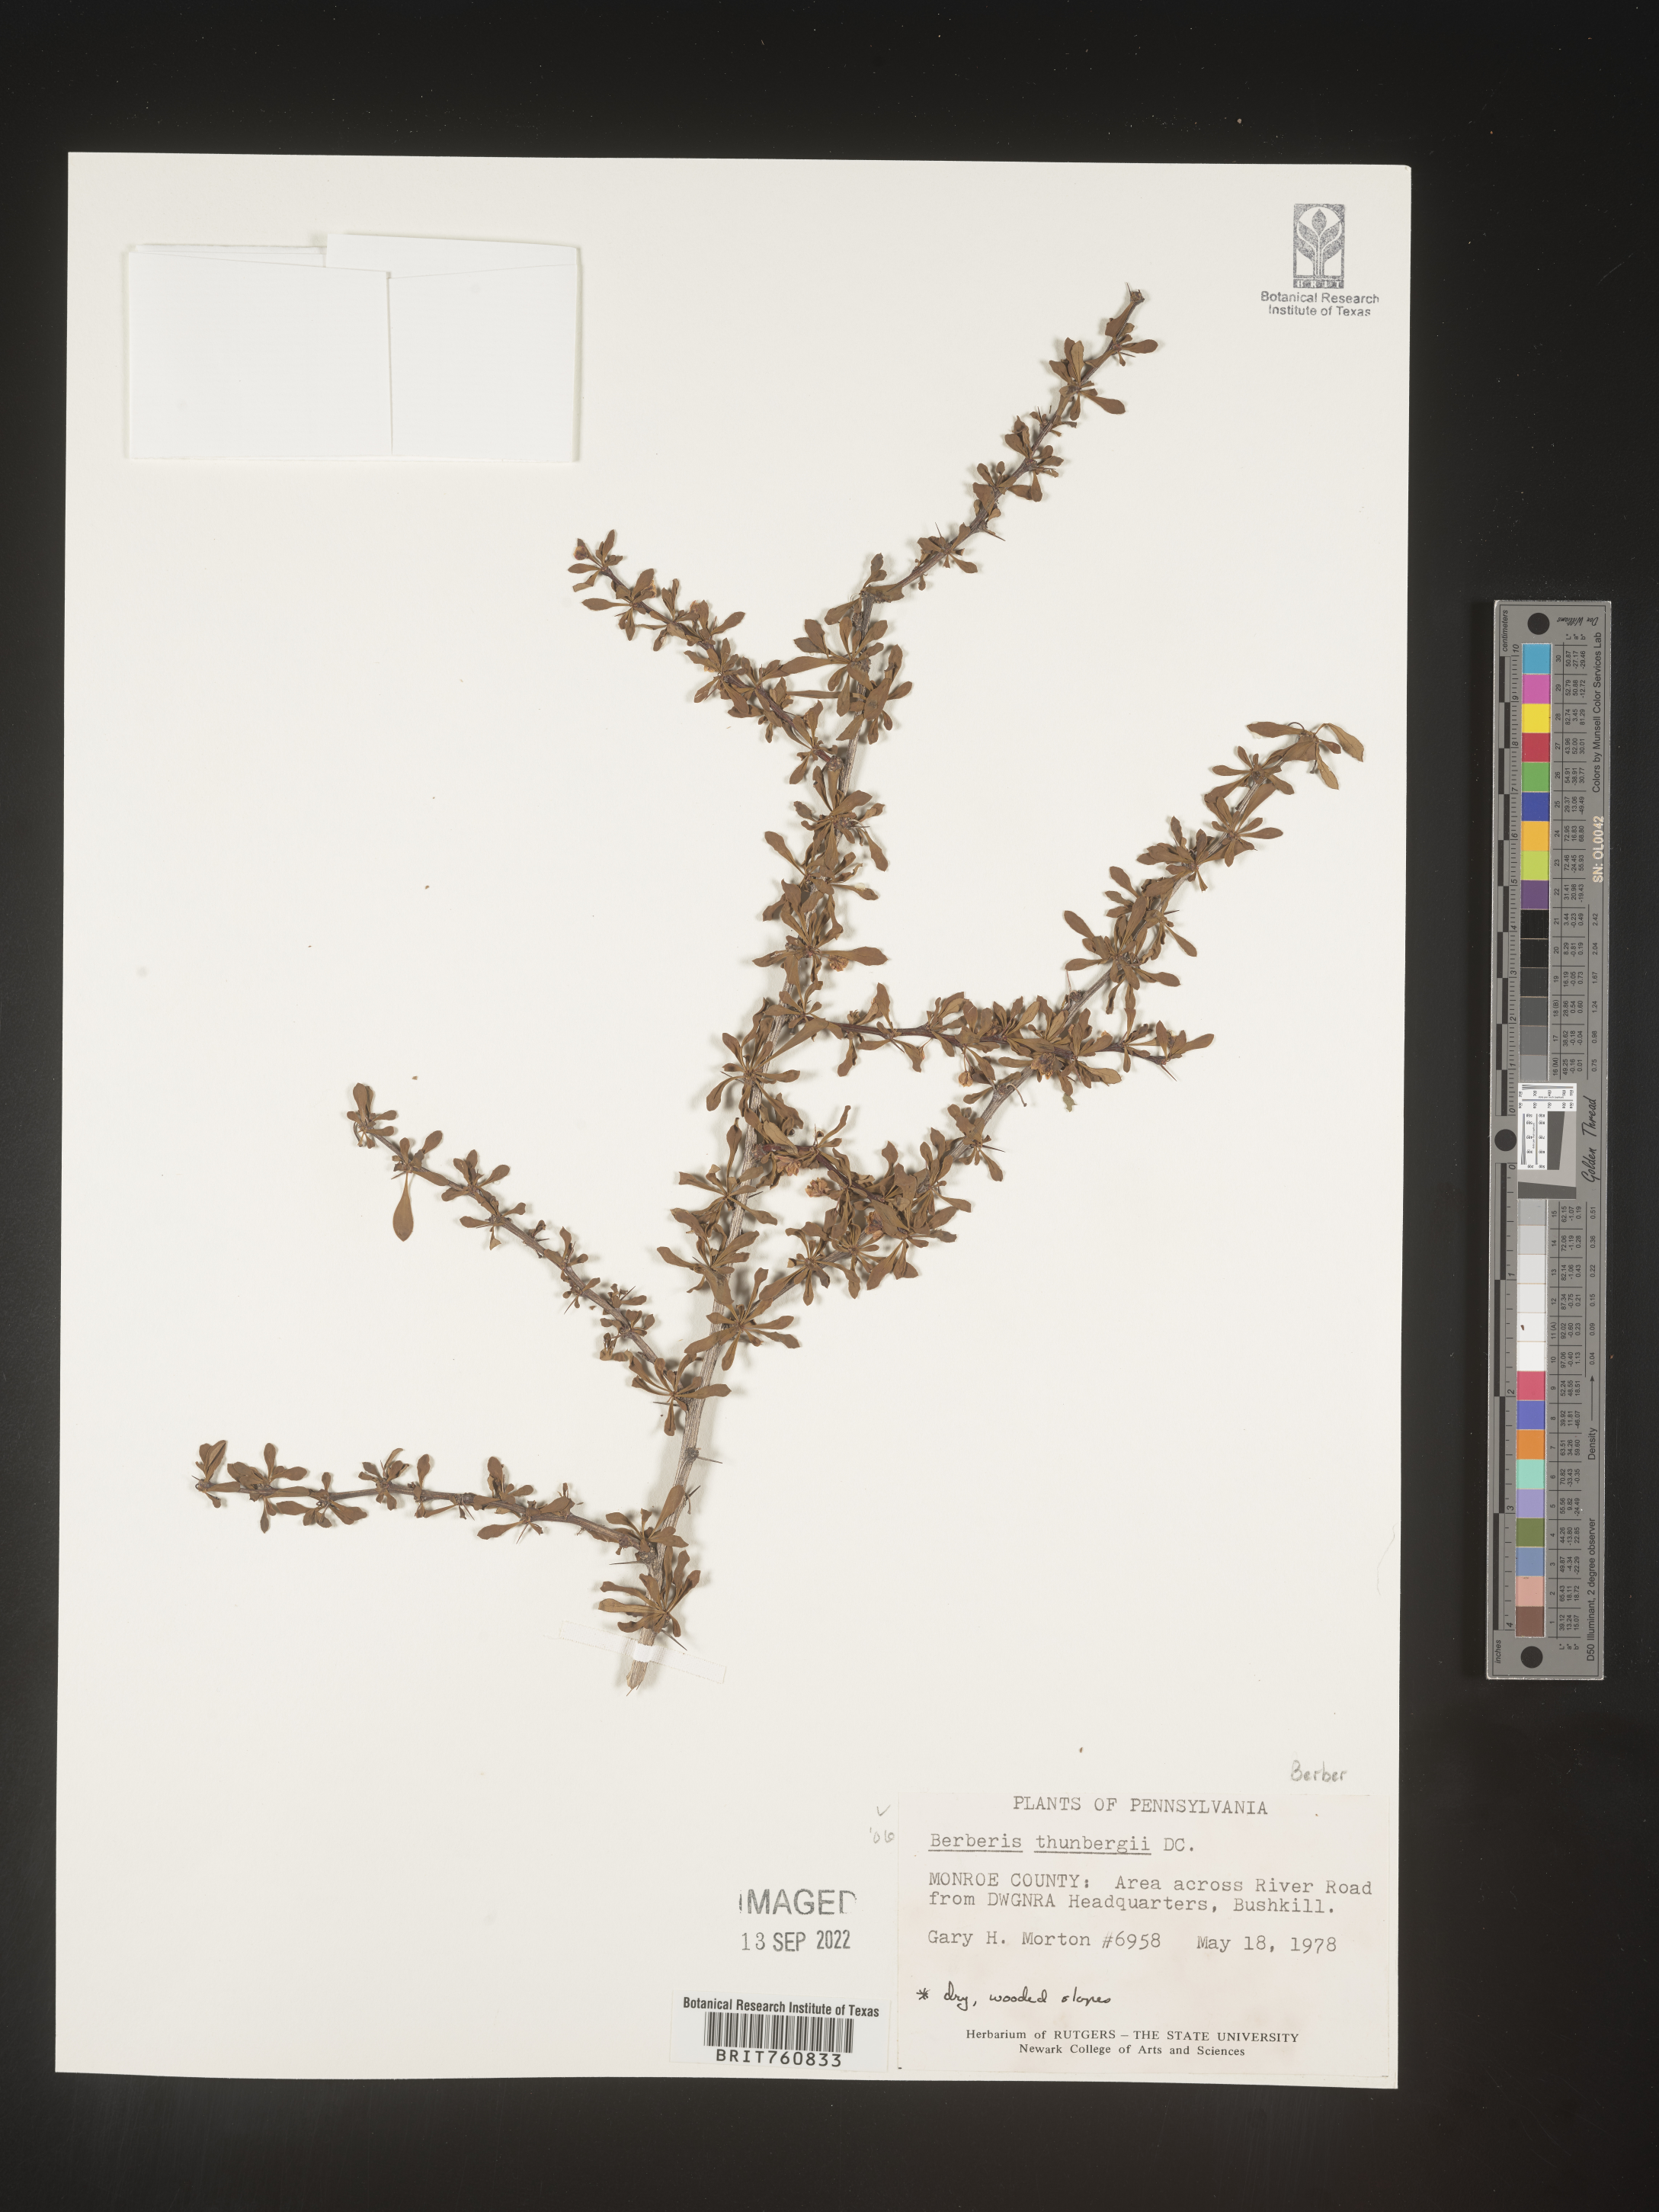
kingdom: Plantae
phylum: Tracheophyta
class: Magnoliopsida
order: Ranunculales
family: Berberidaceae
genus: Berberis
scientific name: Berberis
